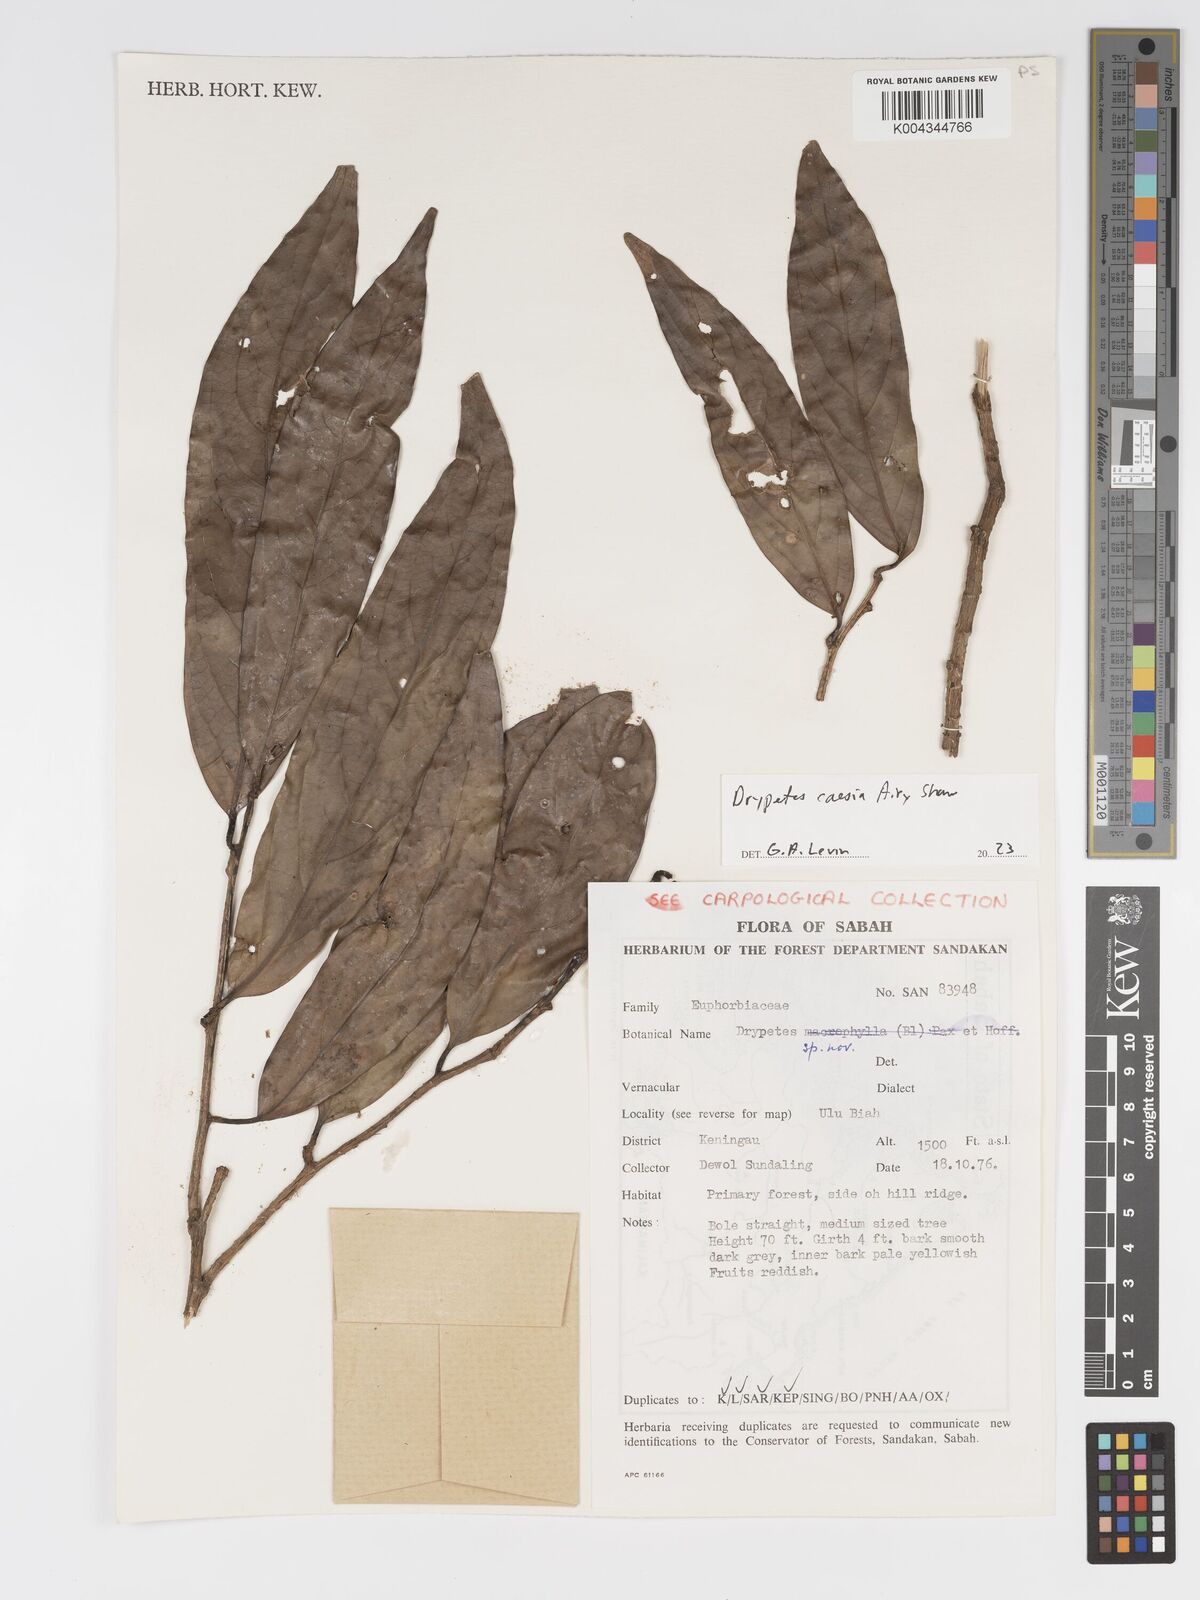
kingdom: Plantae
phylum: Tracheophyta
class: Magnoliopsida
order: Malpighiales
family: Putranjivaceae
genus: Drypetes
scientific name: Drypetes caesia
